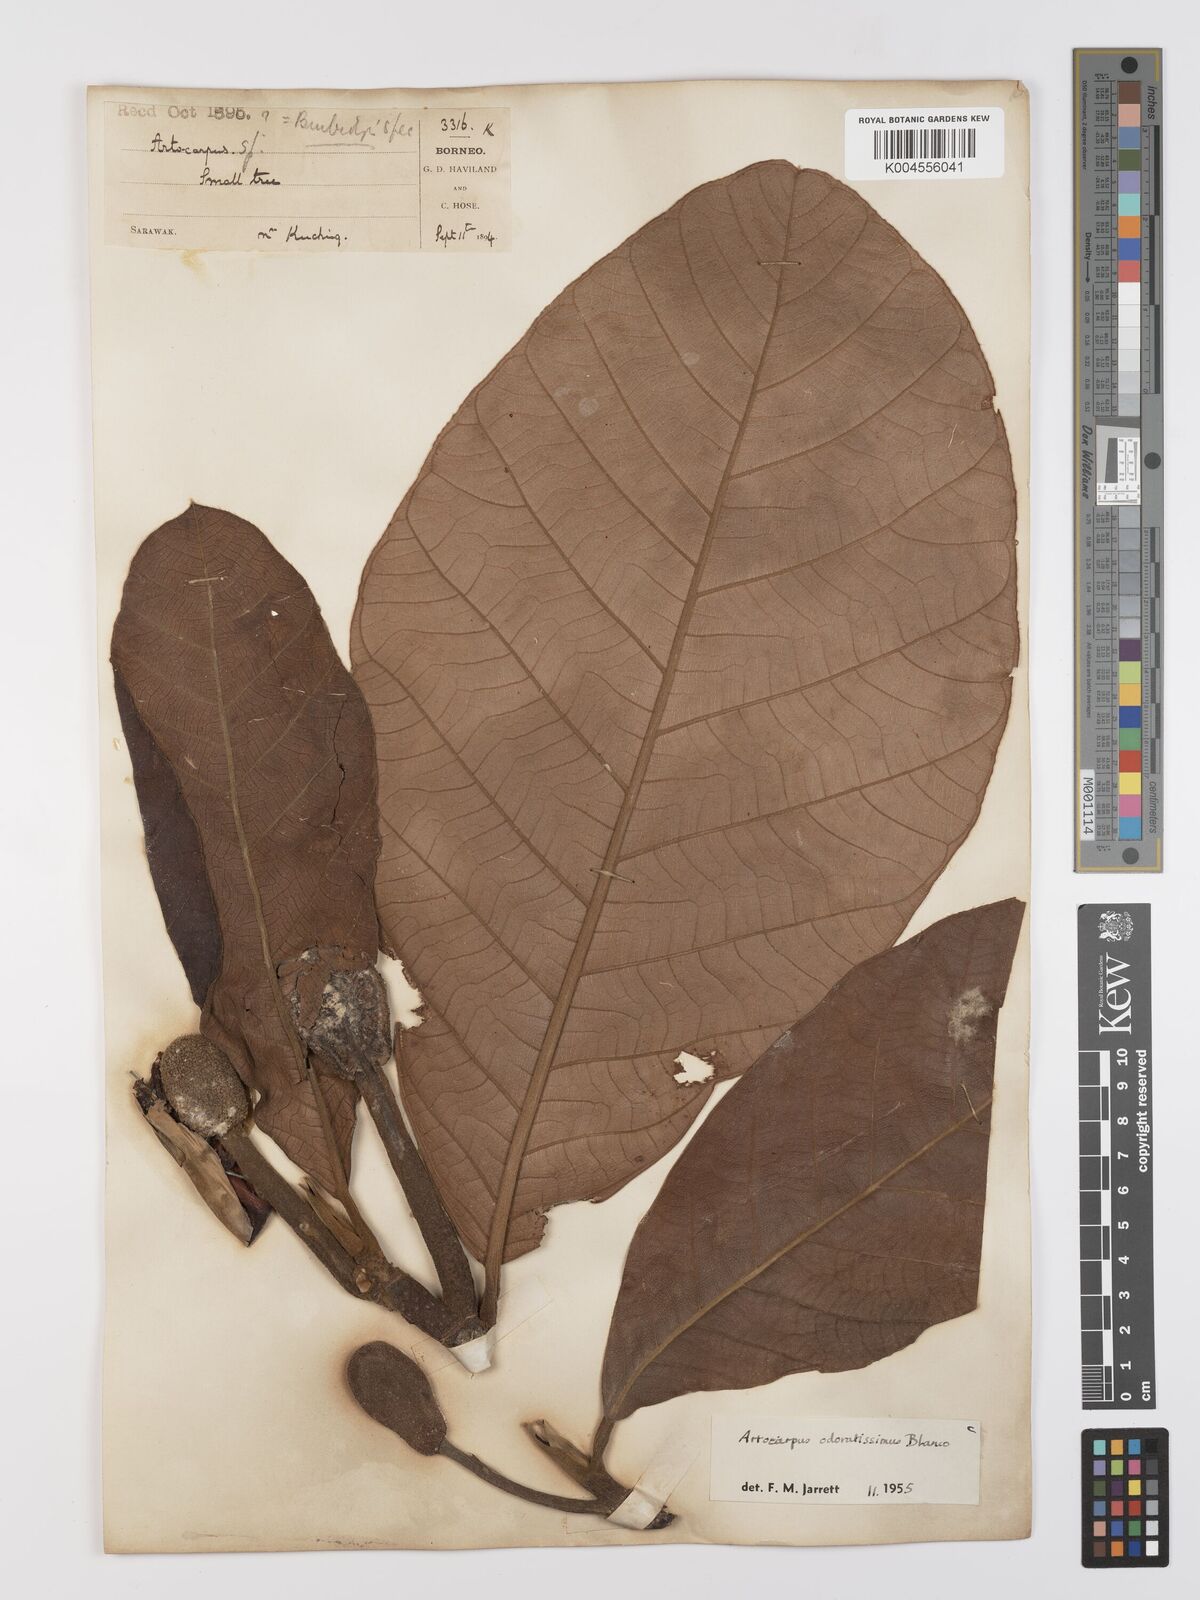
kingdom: Plantae
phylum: Tracheophyta
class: Magnoliopsida
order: Rosales
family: Moraceae
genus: Artocarpus
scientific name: Artocarpus odoratissimus
